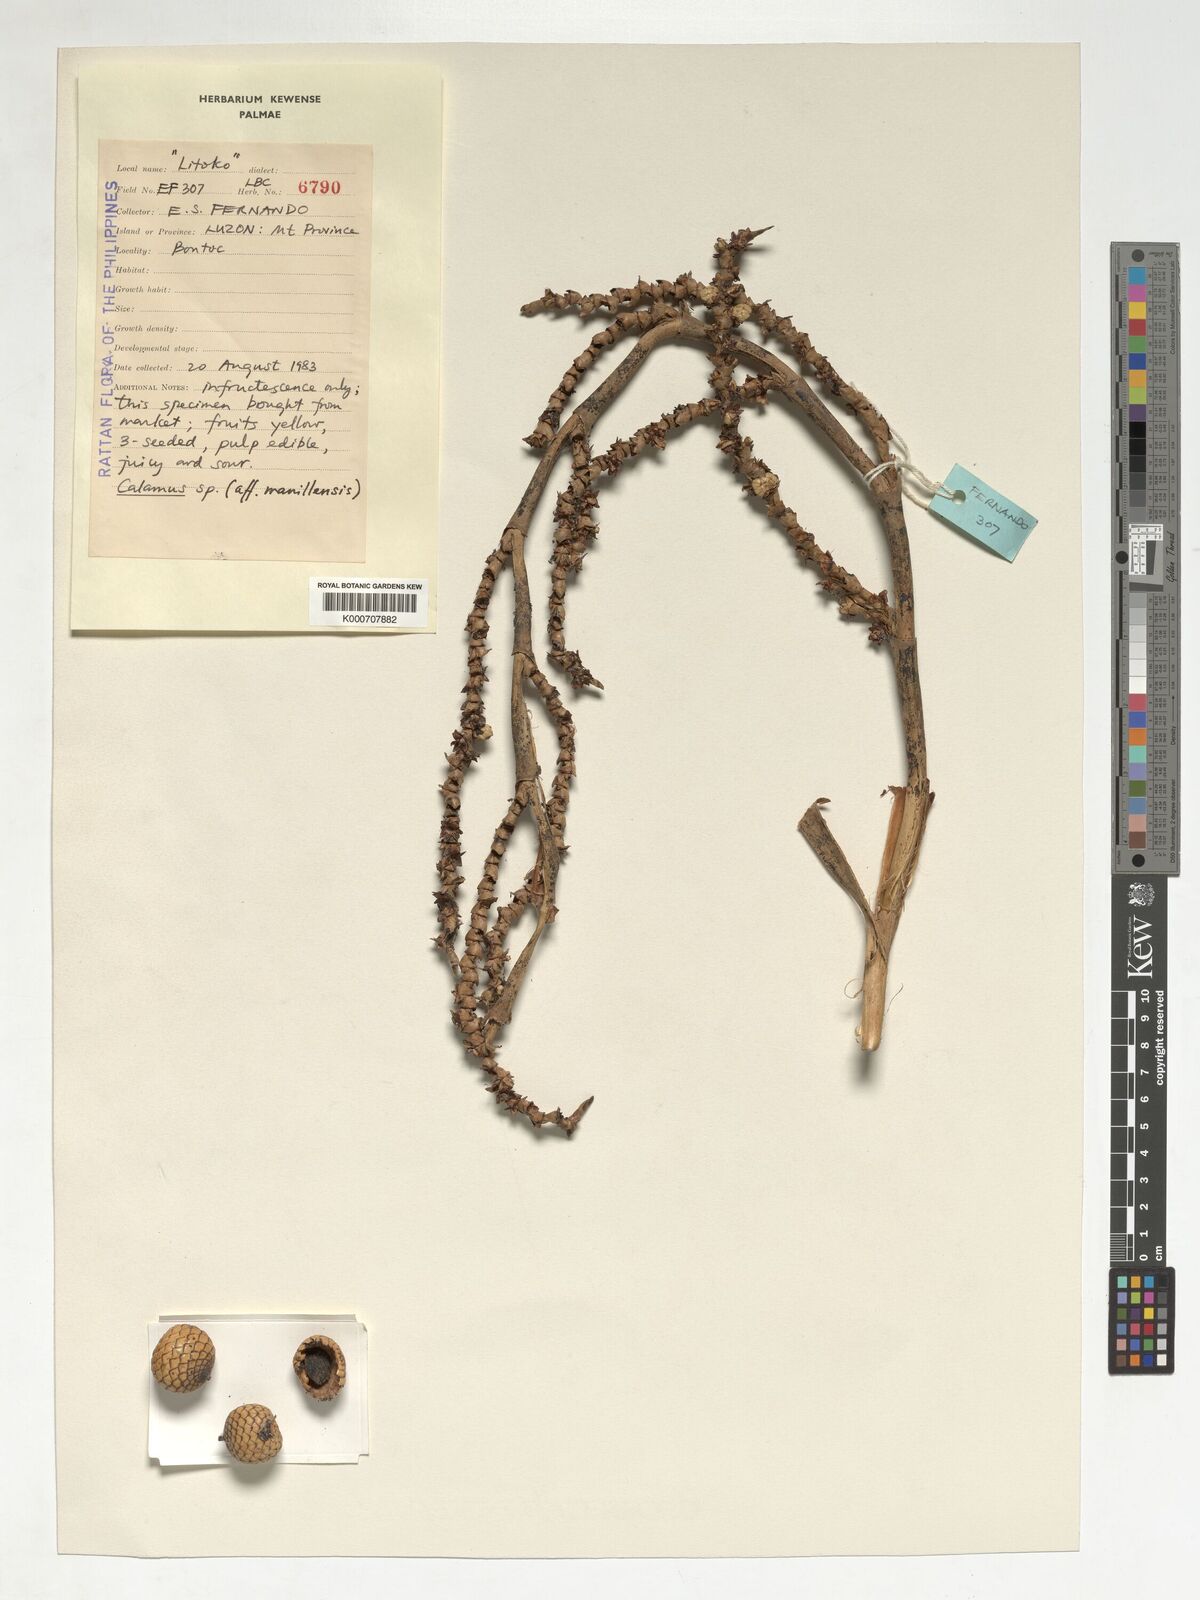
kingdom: Plantae
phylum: Tracheophyta
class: Liliopsida
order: Arecales
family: Arecaceae
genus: Calamus
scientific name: Calamus manillensis
